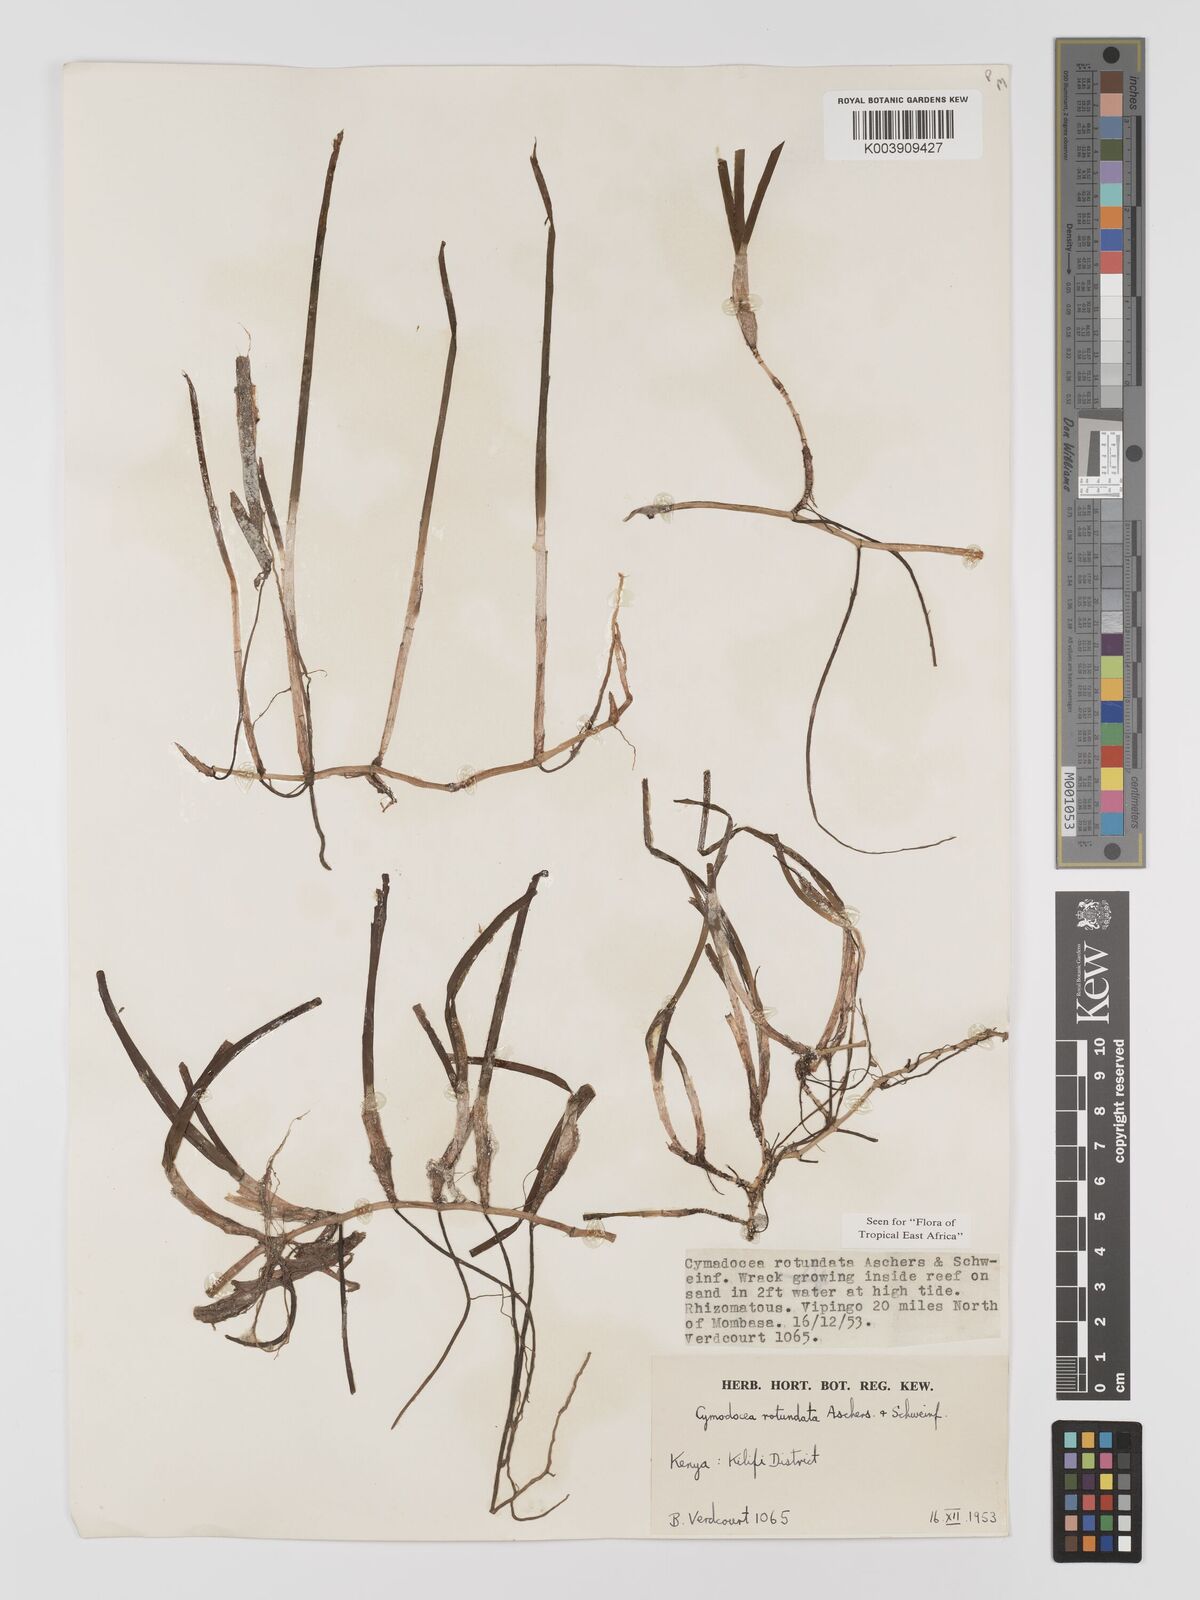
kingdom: Plantae
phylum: Tracheophyta
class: Liliopsida
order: Alismatales
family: Cymodoceaceae
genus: Cymodocea
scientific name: Cymodocea rotundata
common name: Species code: cr
